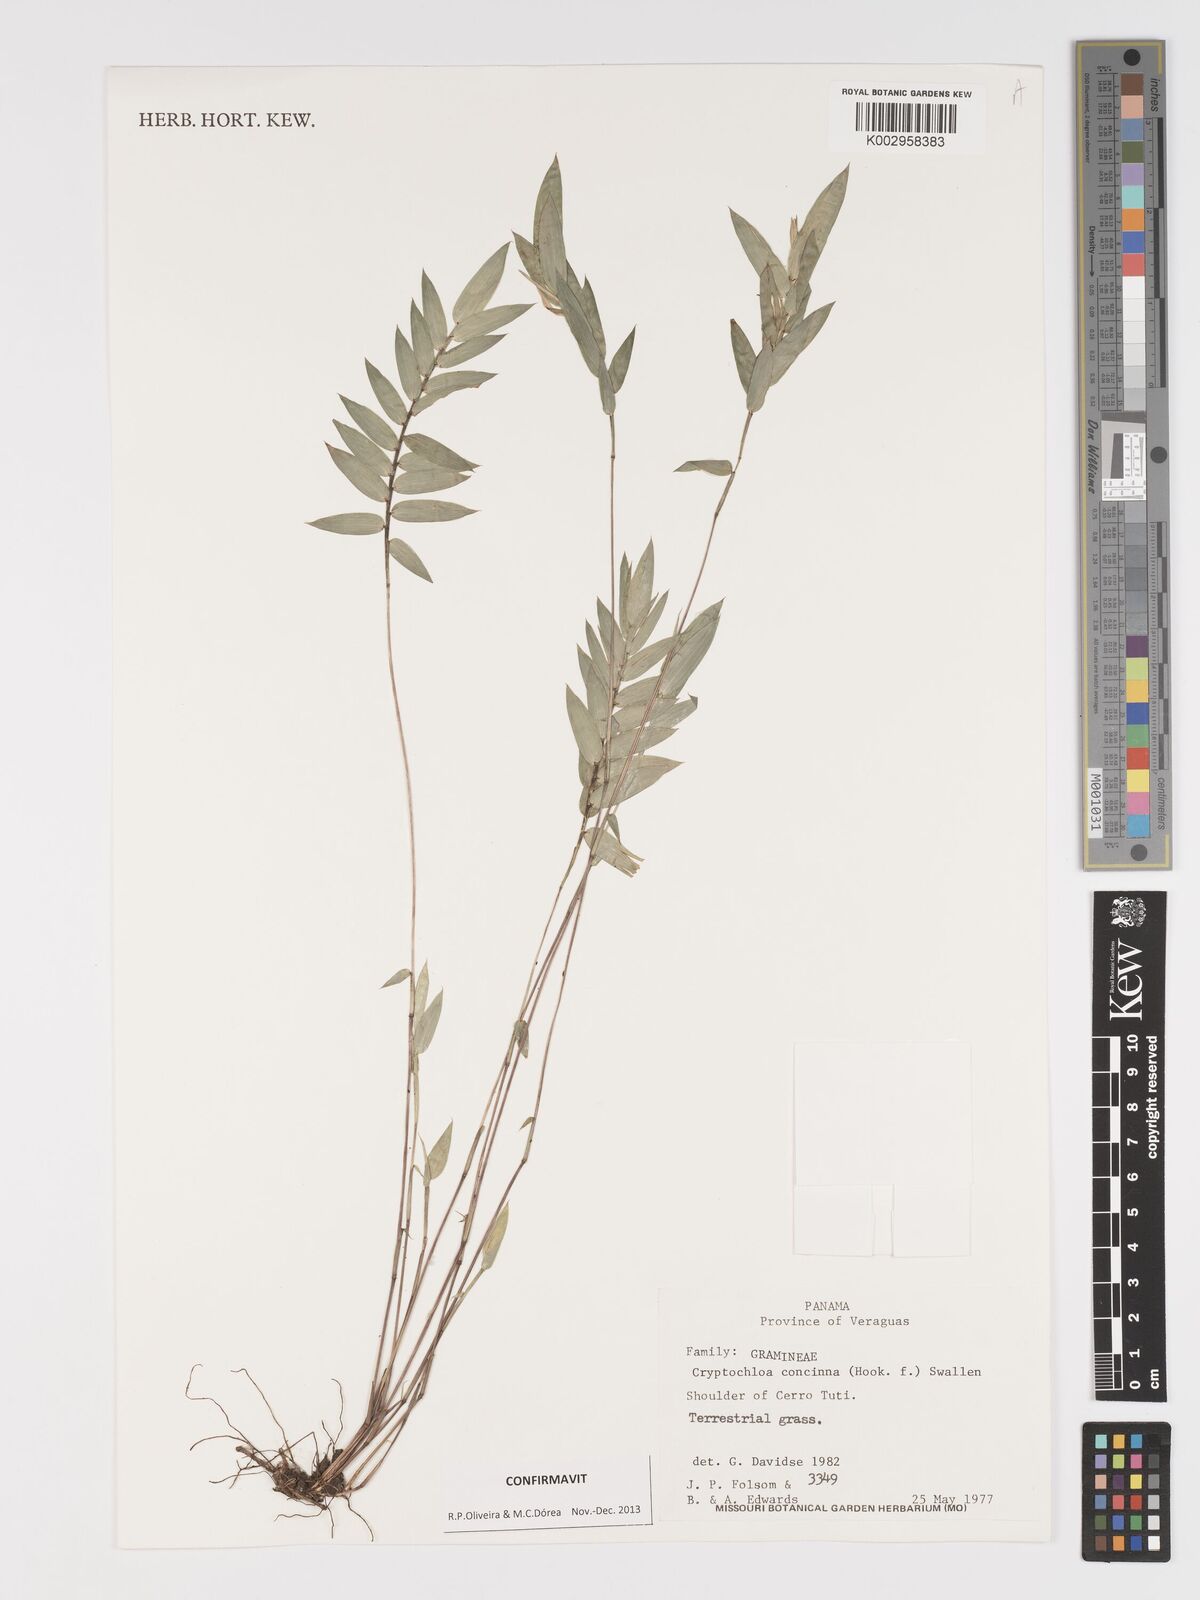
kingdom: Plantae
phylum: Tracheophyta
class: Liliopsida
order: Poales
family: Poaceae
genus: Cryptochloa
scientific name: Cryptochloa concinna
